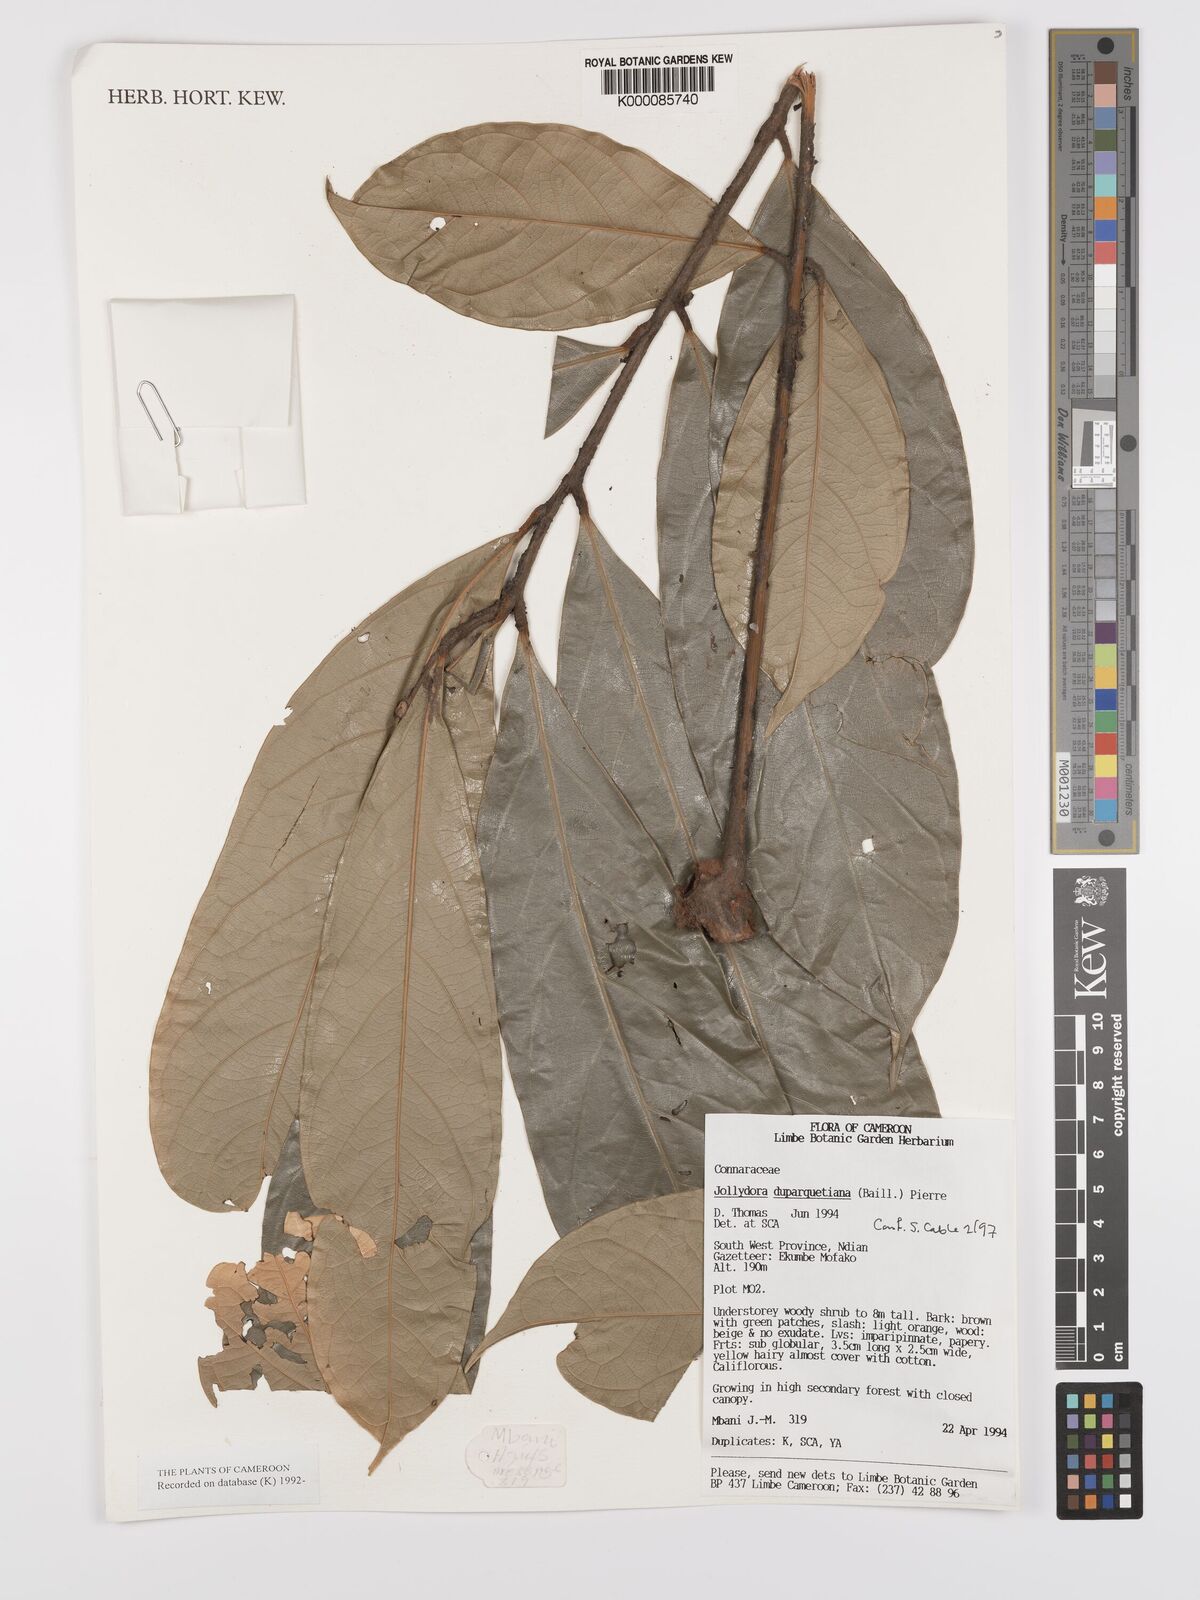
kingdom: Plantae
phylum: Tracheophyta
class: Magnoliopsida
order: Oxalidales
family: Connaraceae
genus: Jollydora
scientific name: Jollydora duparquetiana
